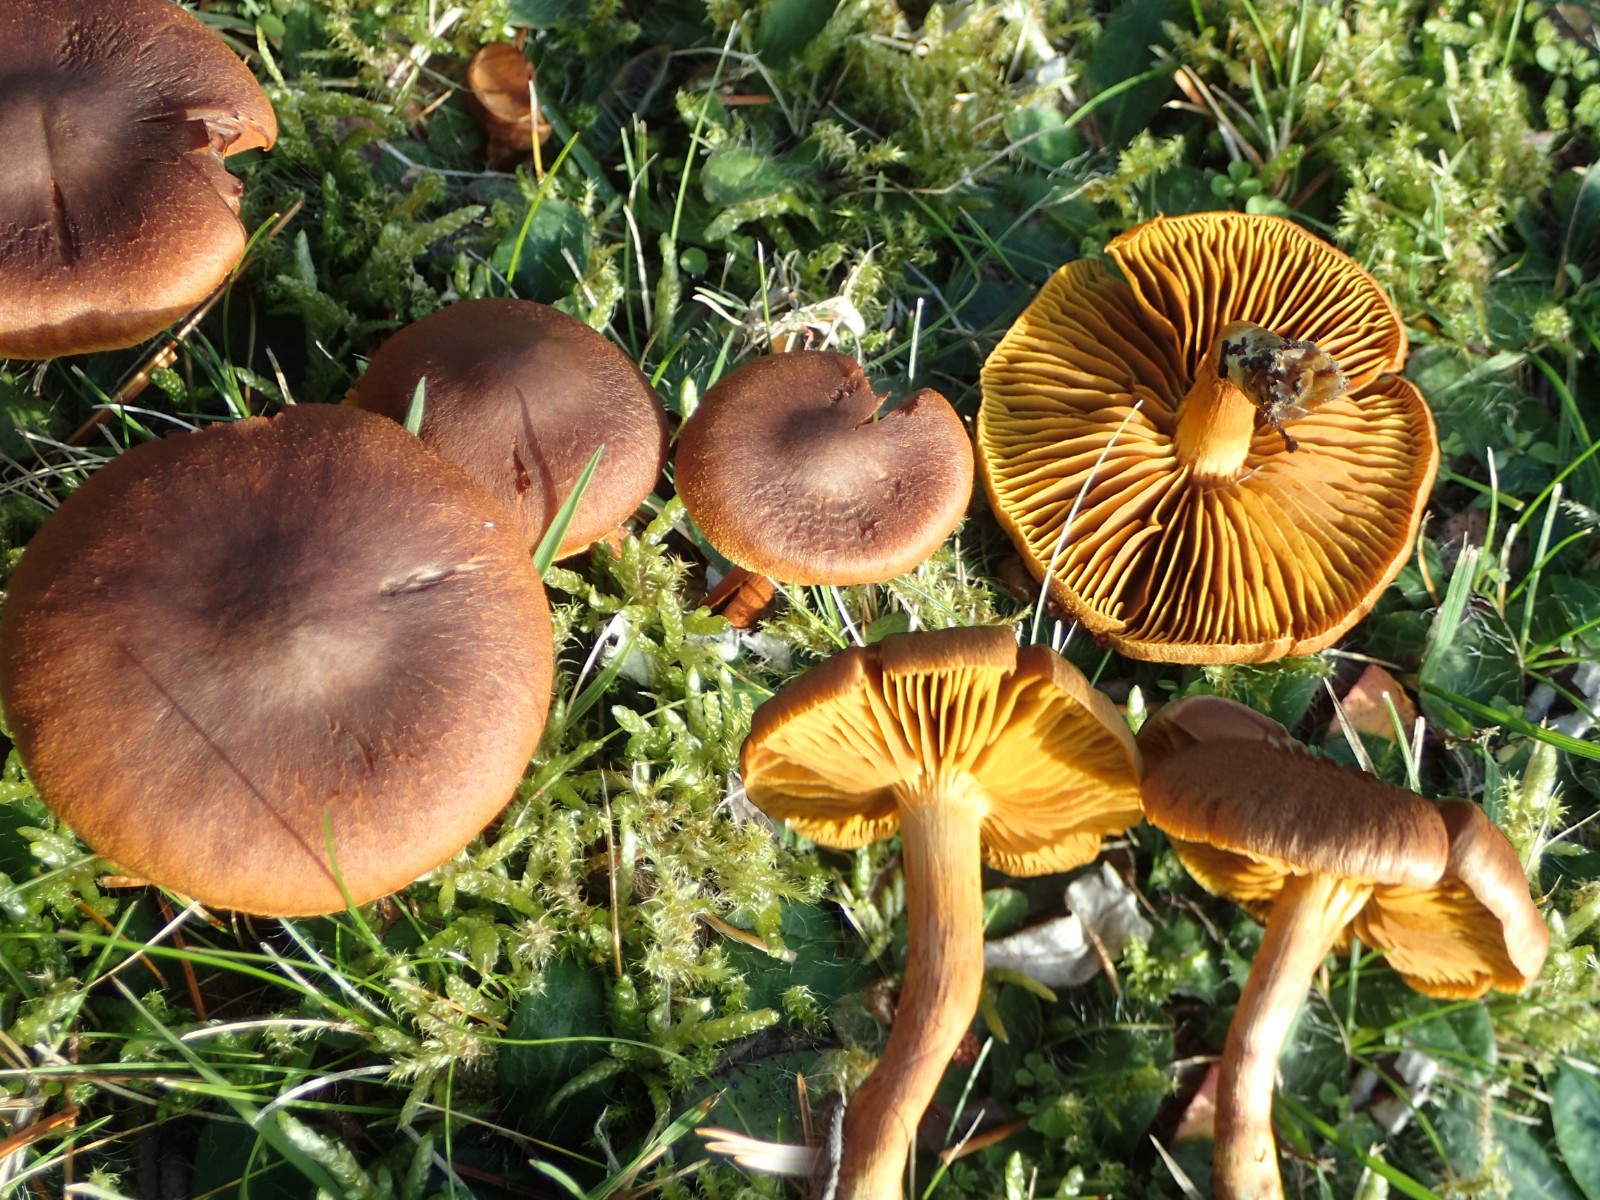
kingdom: Fungi
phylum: Basidiomycota
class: Agaricomycetes
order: Agaricales
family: Cortinariaceae
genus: Cortinarius
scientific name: Cortinarius
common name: gulbladet slørhat
